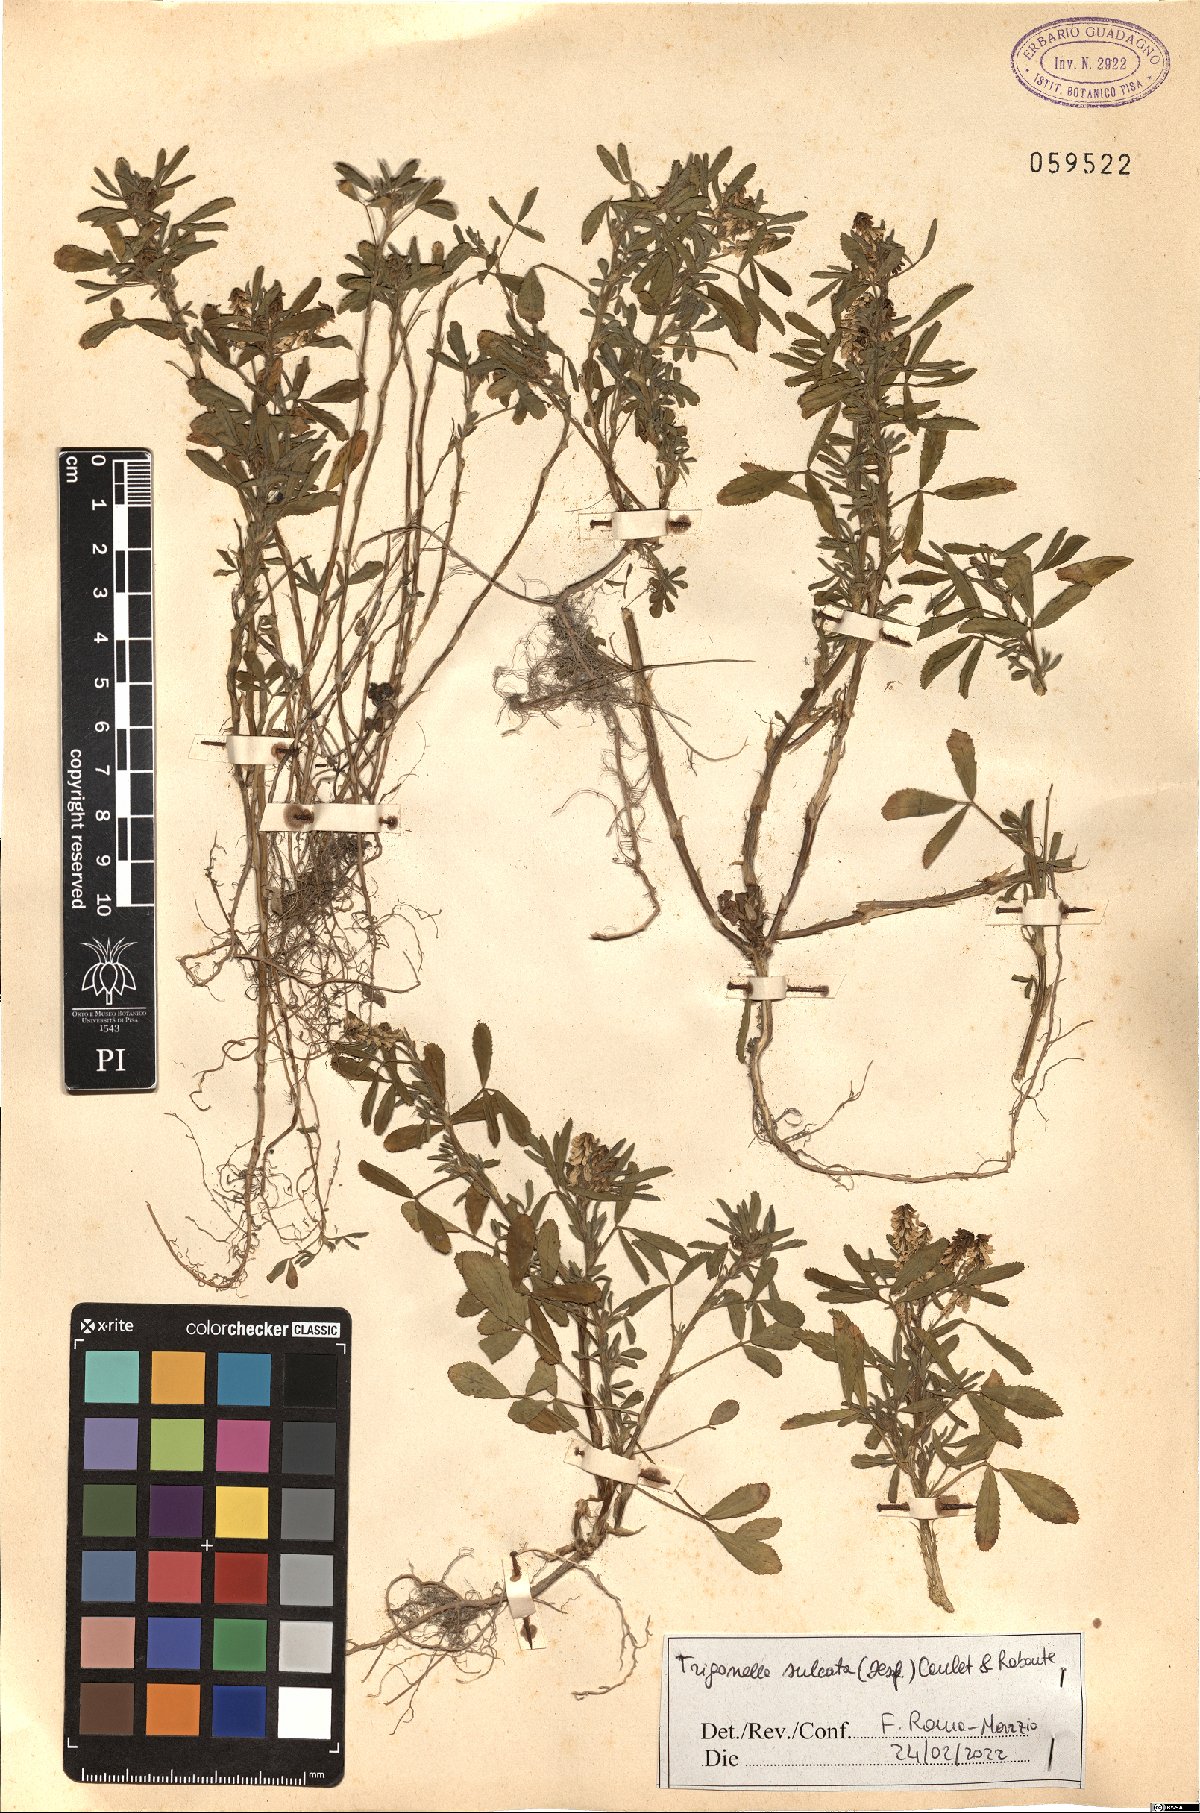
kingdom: Plantae
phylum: Tracheophyta
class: Magnoliopsida
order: Fabales
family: Fabaceae
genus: Melilotus
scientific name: Melilotus sulcatus
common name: Furrowed melilot
